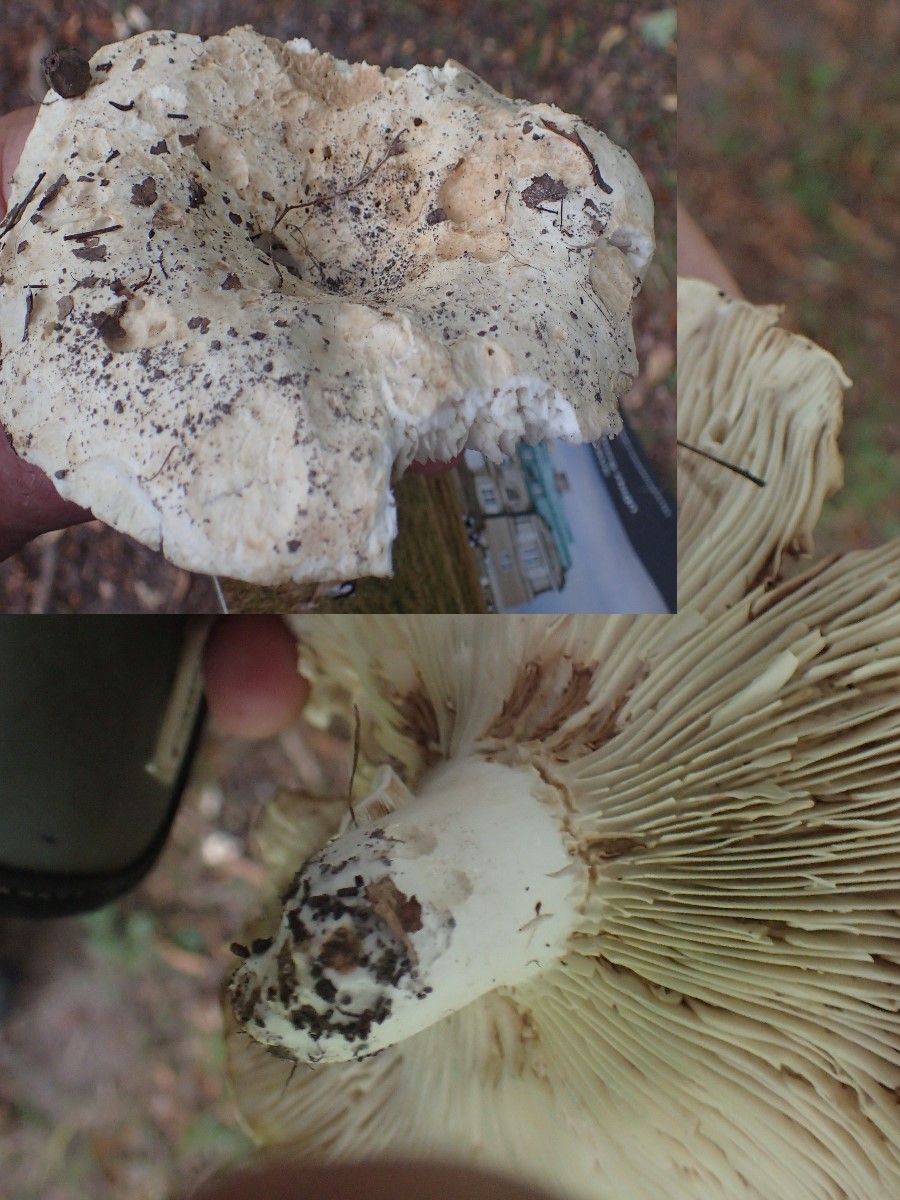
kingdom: Fungi
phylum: Basidiomycota
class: Agaricomycetes
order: Russulales
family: Russulaceae
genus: Russula
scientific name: Russula delica
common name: almindelig tragt-skørhat
